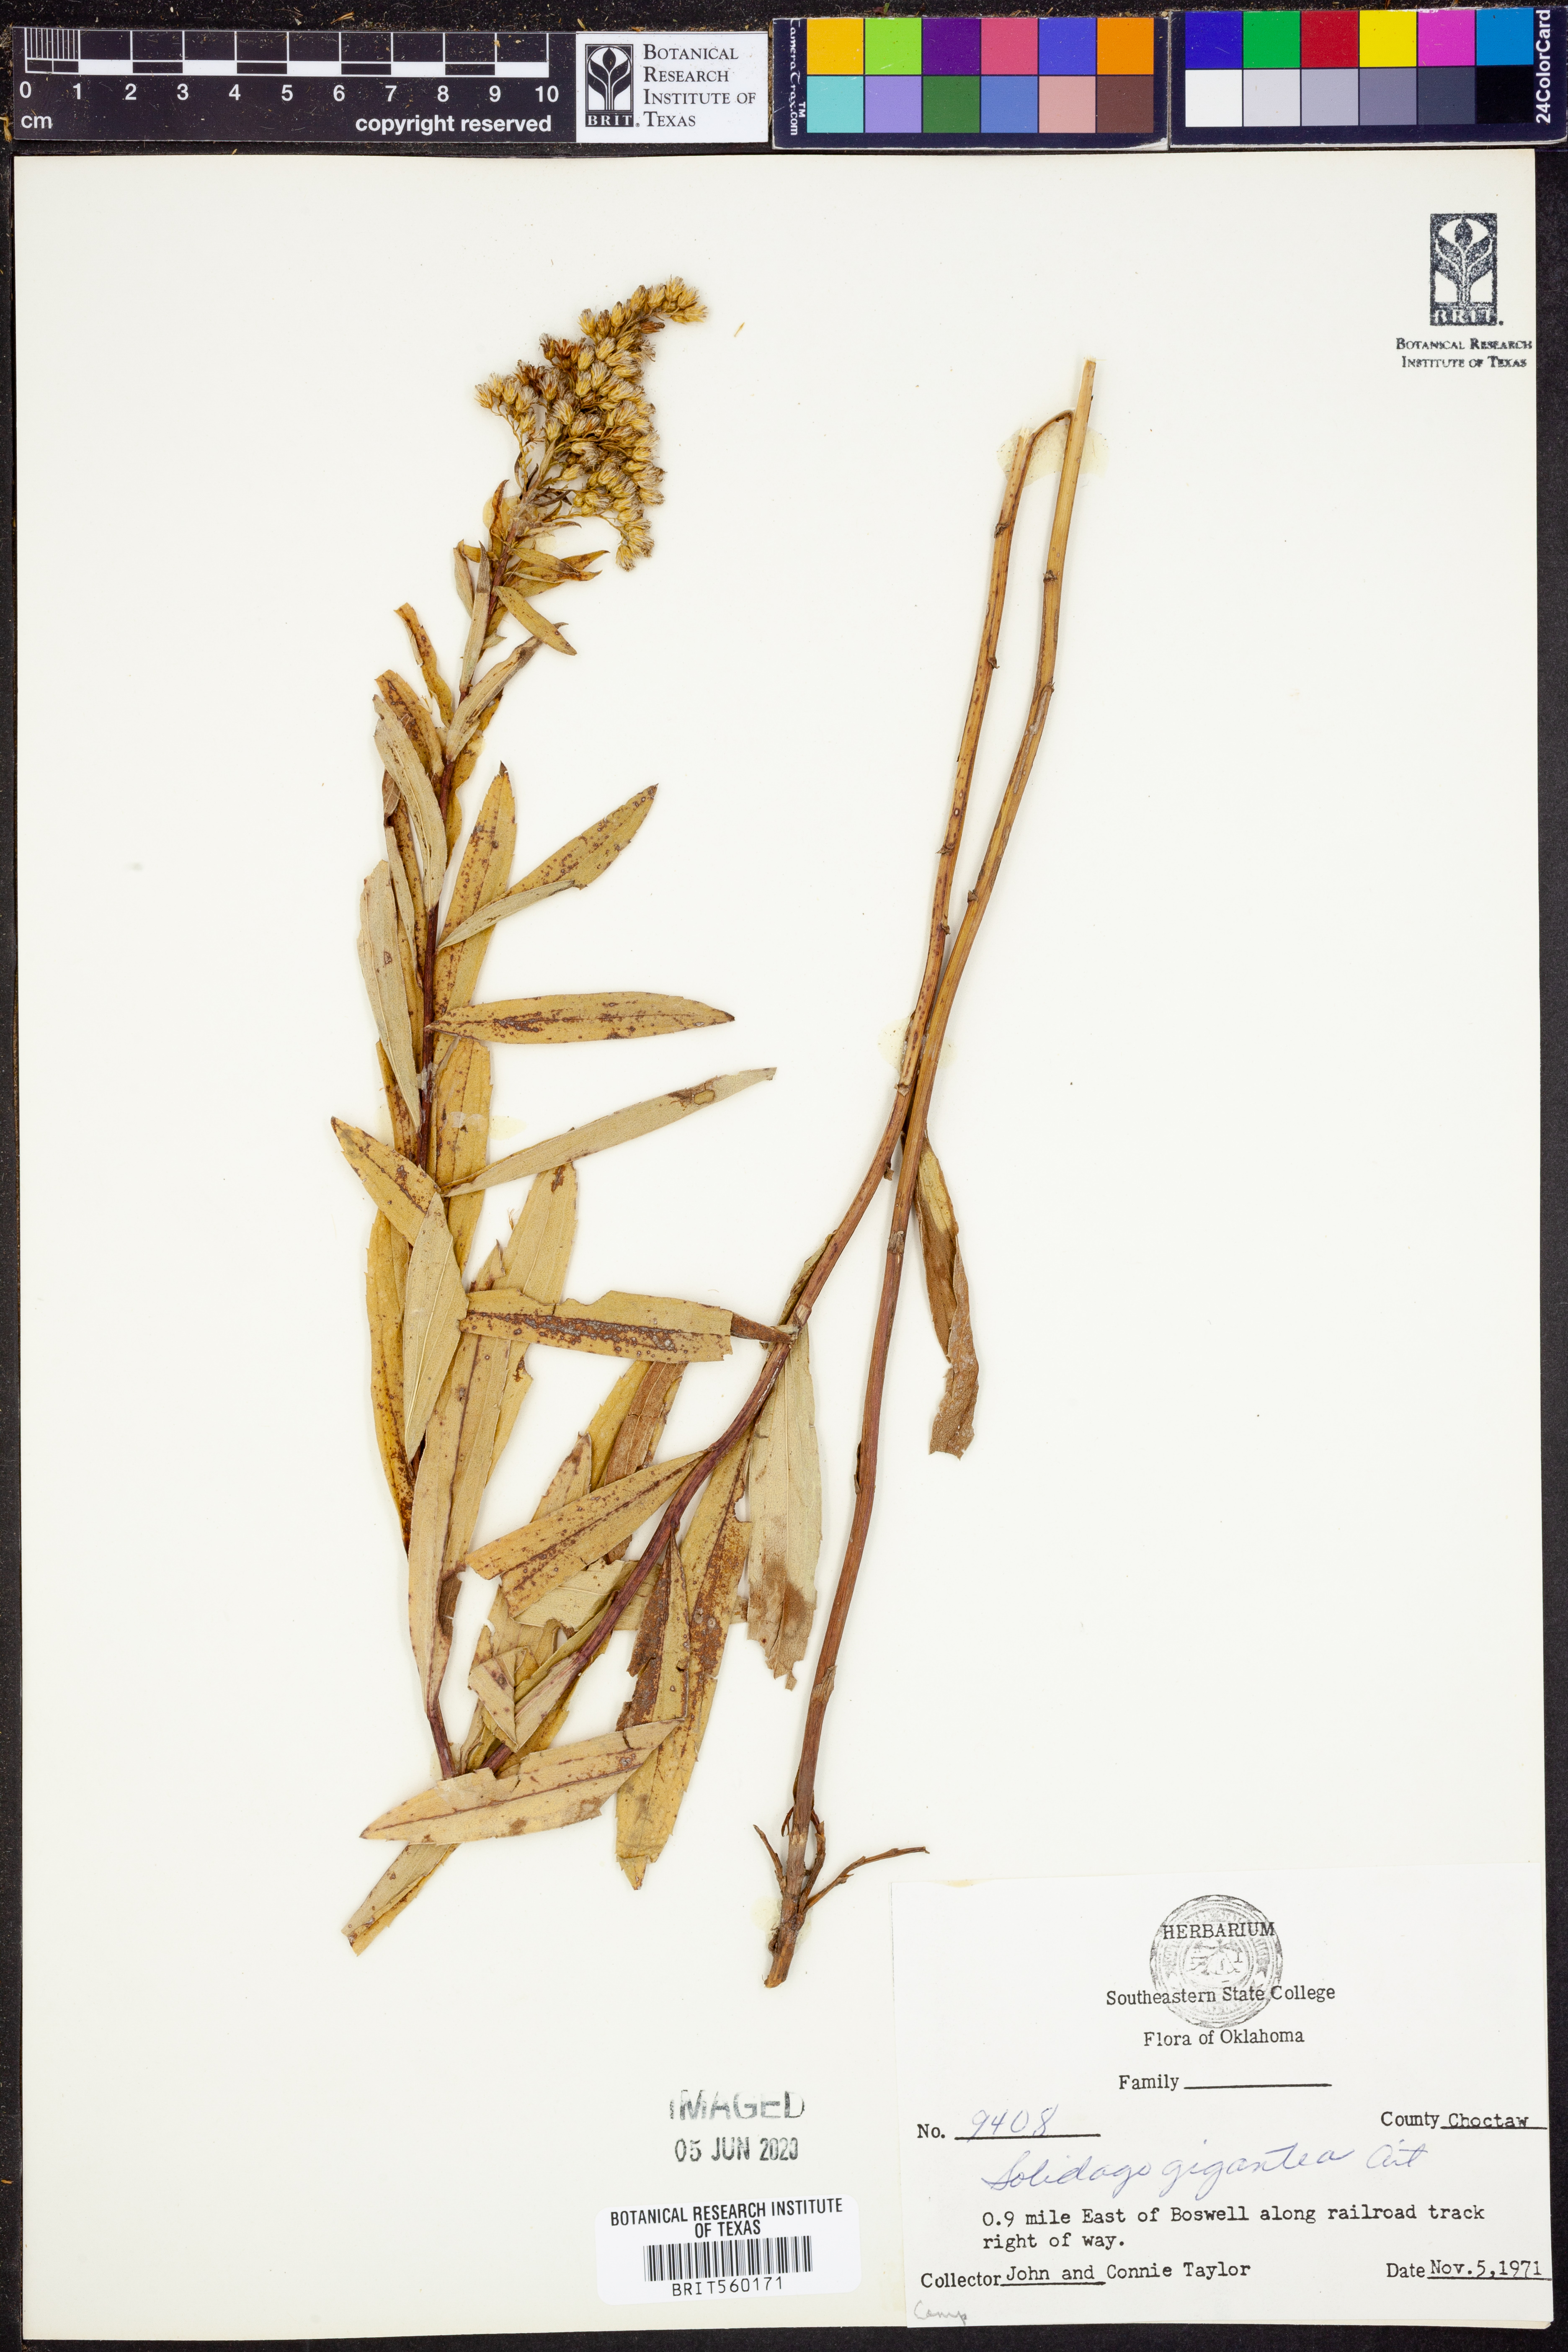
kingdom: Plantae
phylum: Tracheophyta
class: Magnoliopsida
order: Asterales
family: Asteraceae
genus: Solidago
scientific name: Solidago gigantea
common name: Giant goldenrod
